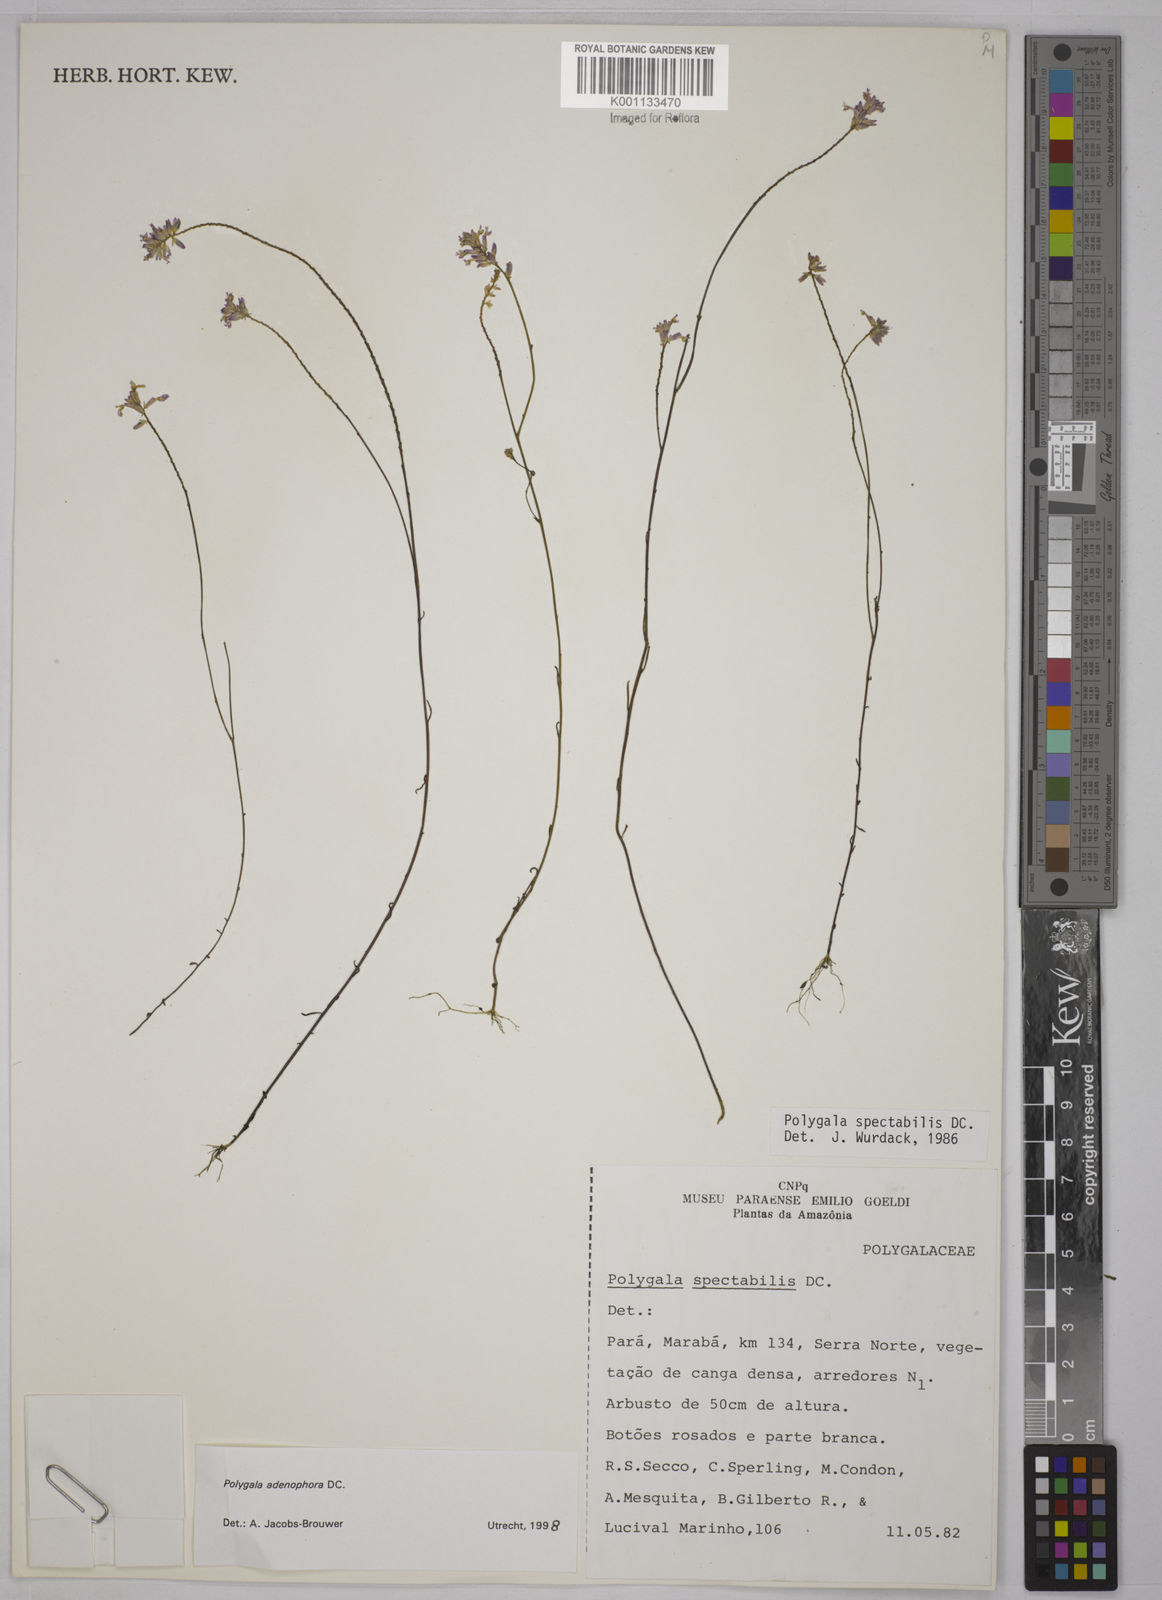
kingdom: Plantae
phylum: Tracheophyta
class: Magnoliopsida
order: Fabales
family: Polygalaceae
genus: Polygala
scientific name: Polygala adenophora
